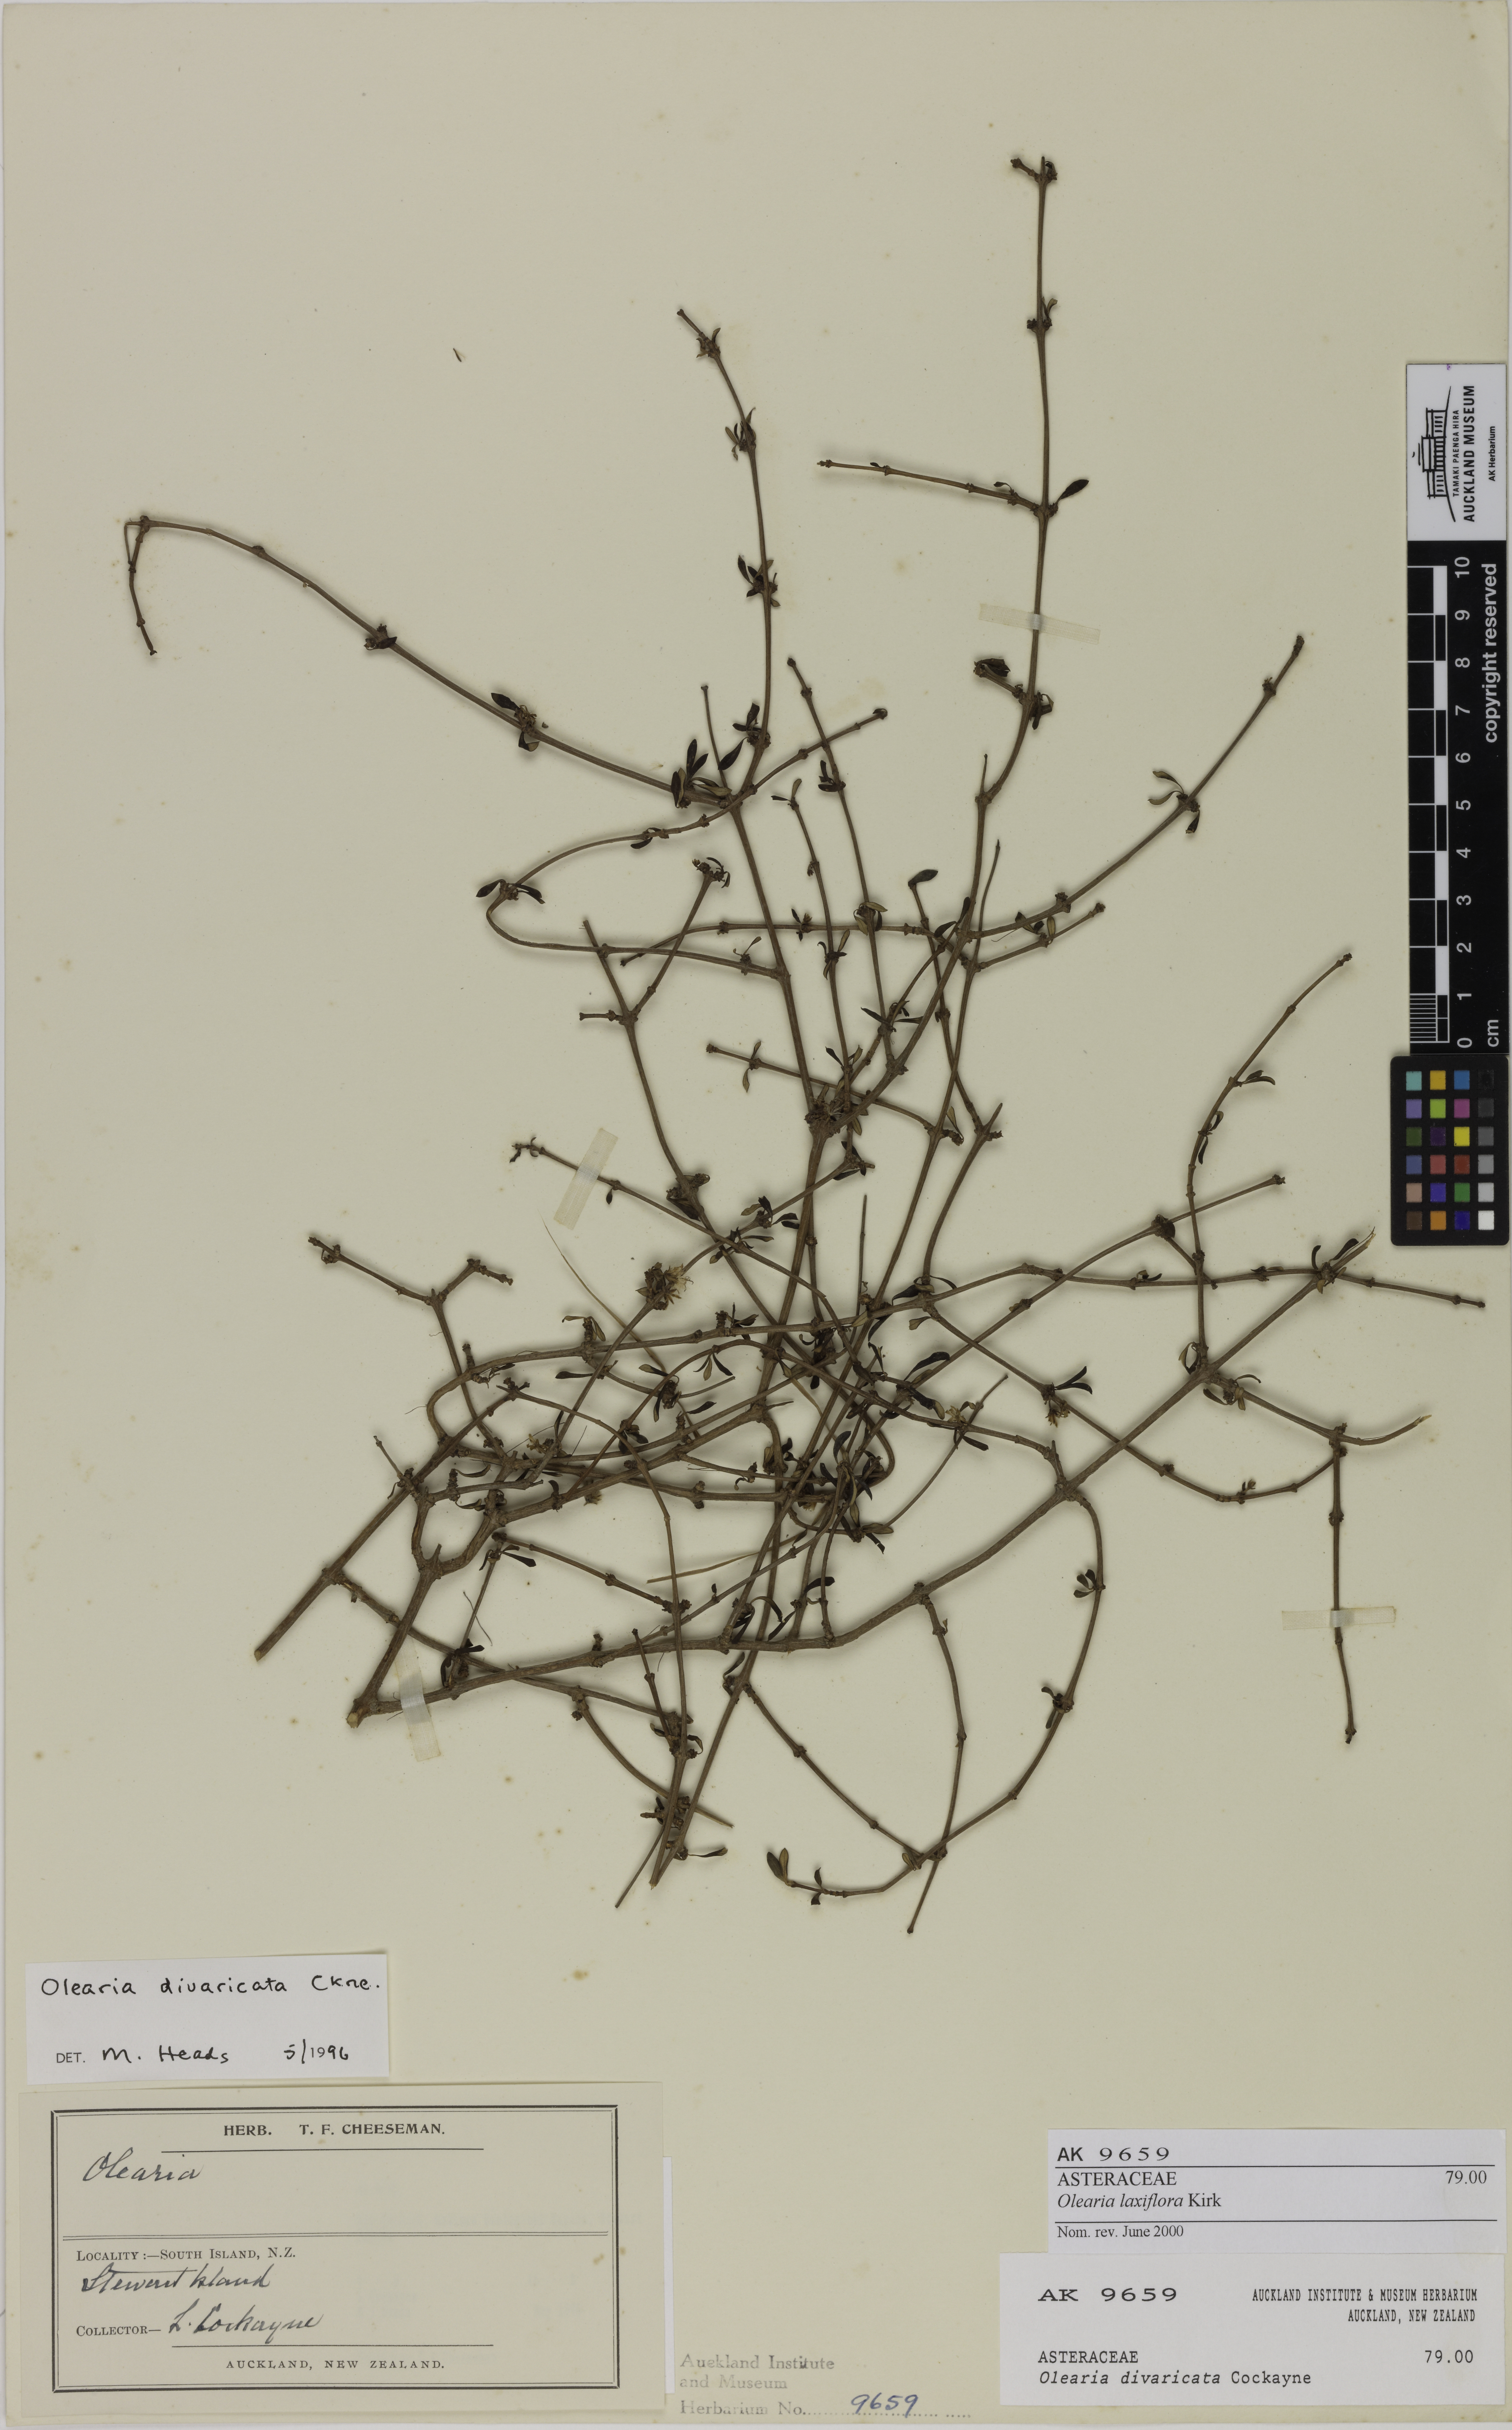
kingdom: Plantae
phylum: Tracheophyta
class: Magnoliopsida
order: Asterales
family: Asteraceae
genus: Olearia
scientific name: Olearia laxiflora
